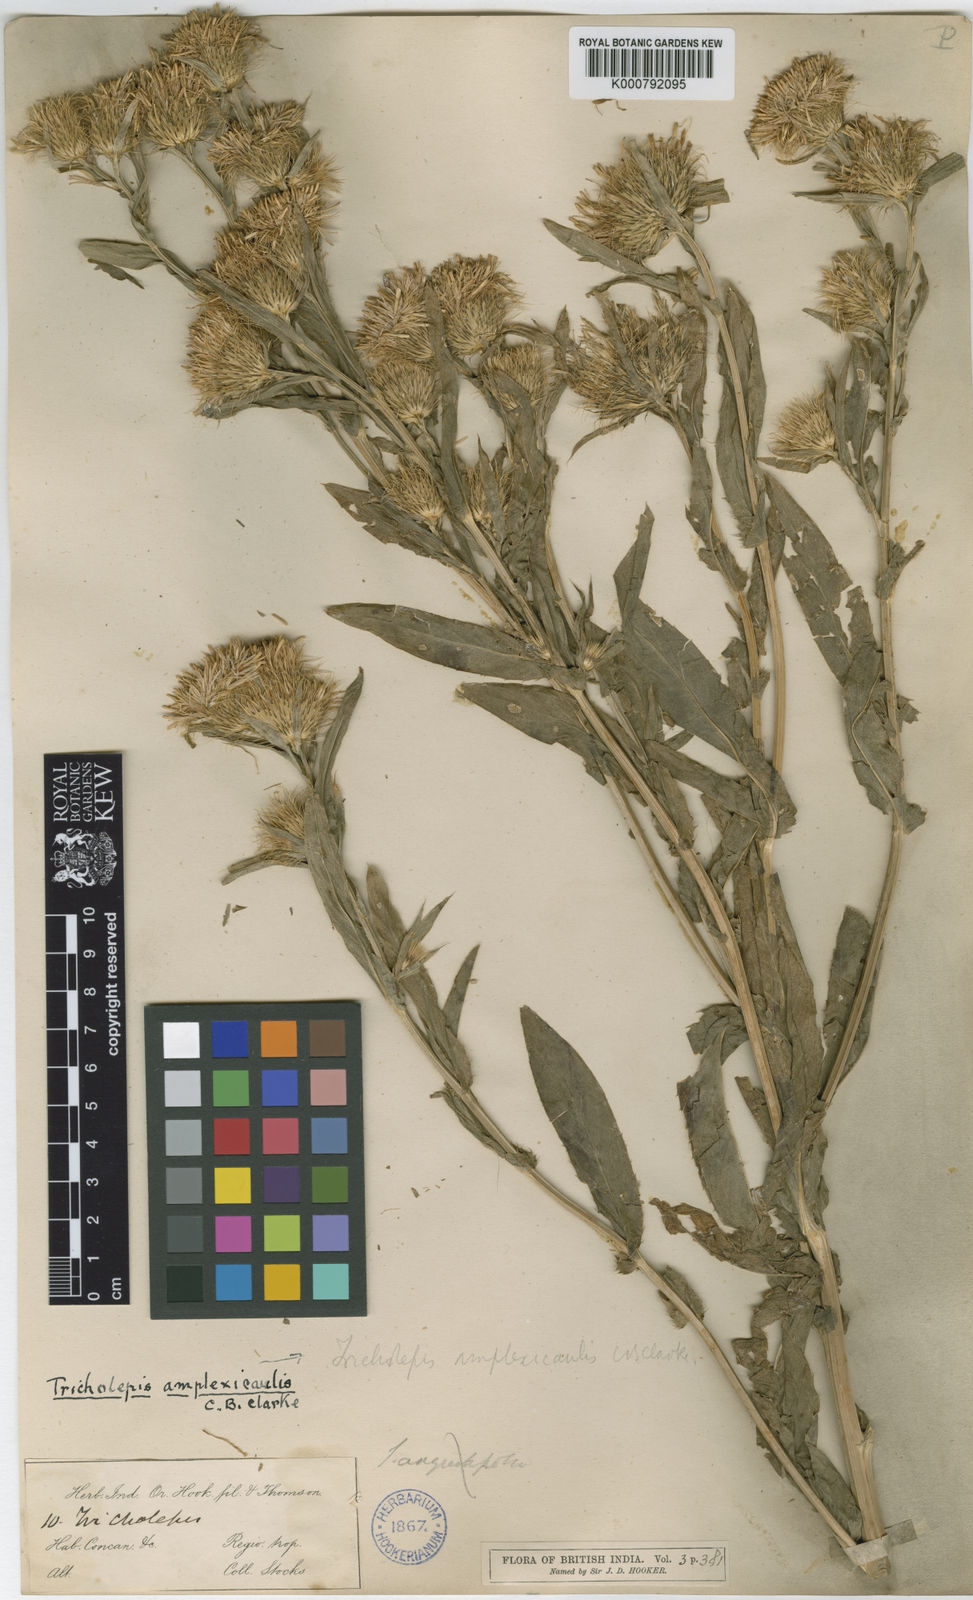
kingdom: Plantae
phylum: Tracheophyta
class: Magnoliopsida
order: Asterales
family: Asteraceae
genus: Tricholepis
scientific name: Tricholepis amplexicaulis
